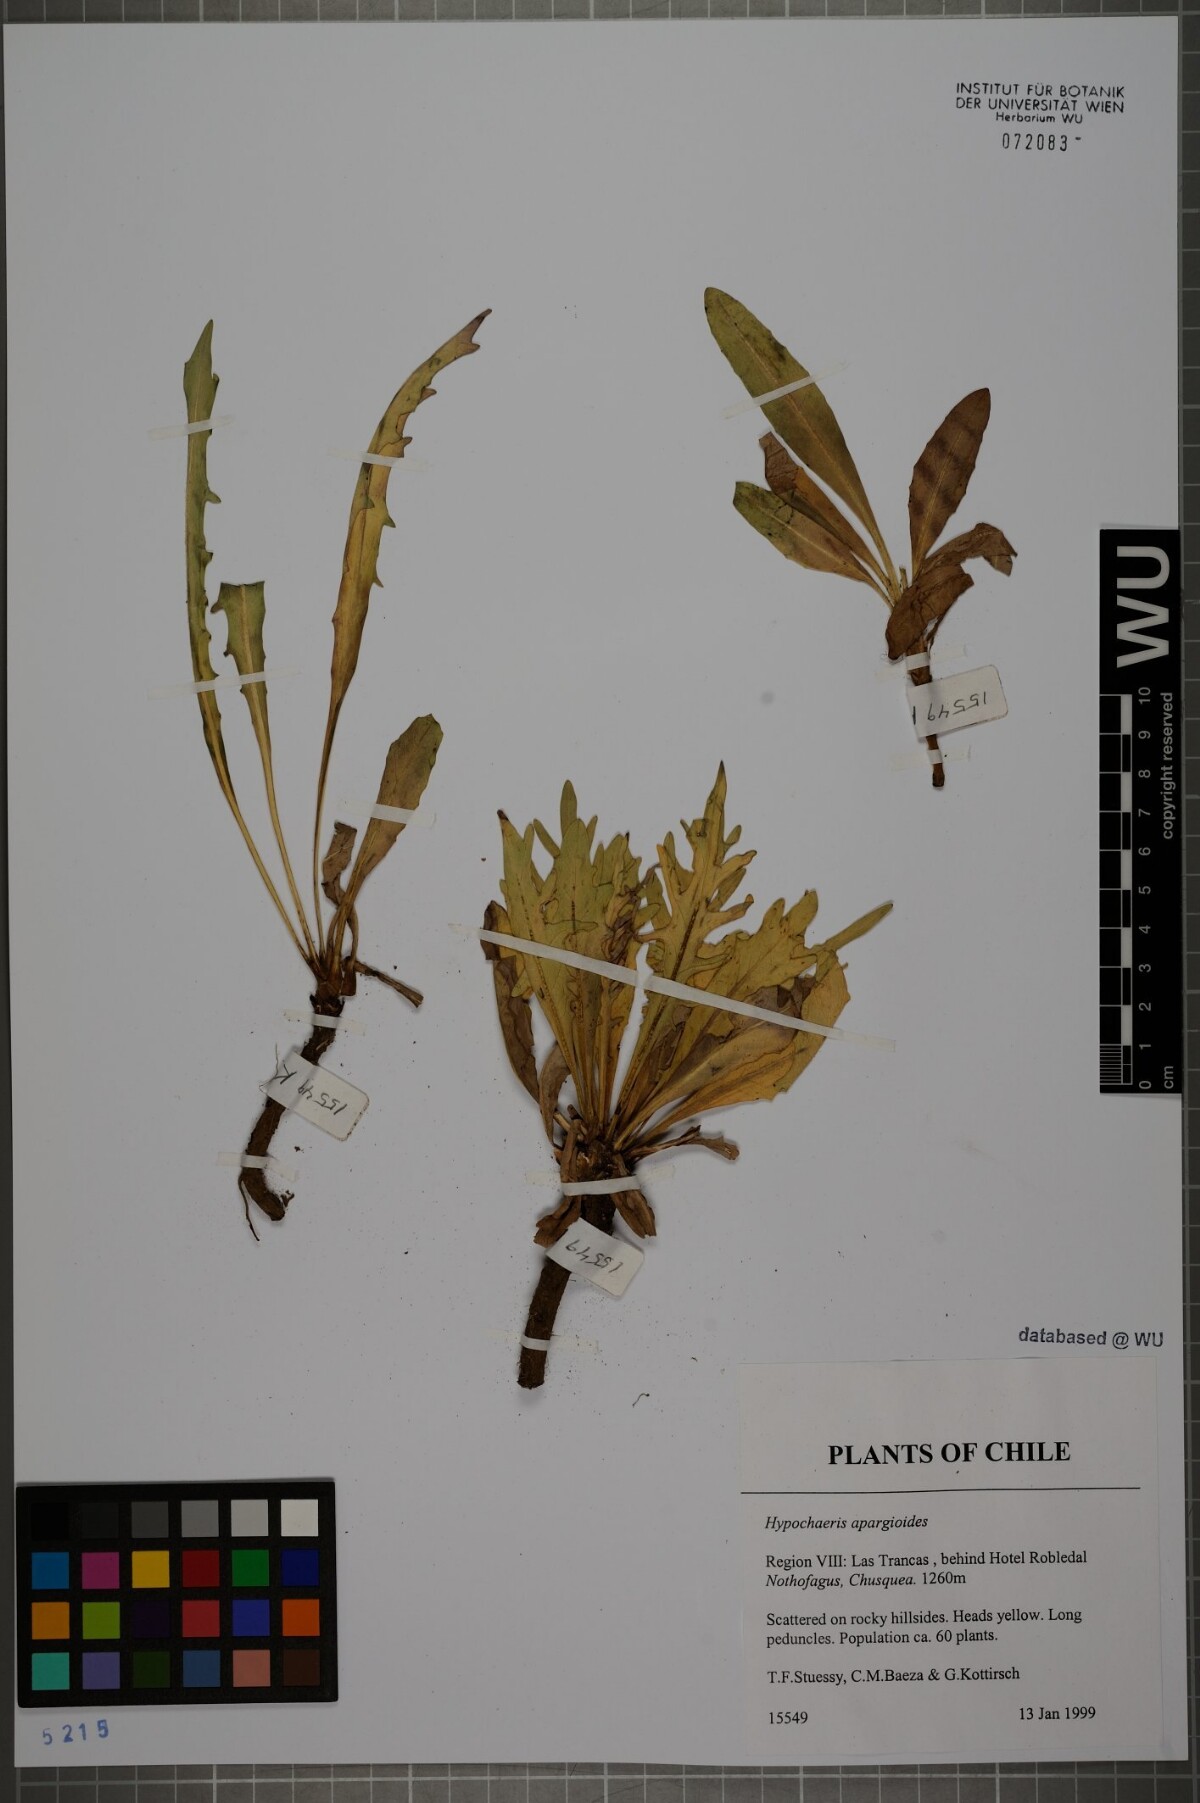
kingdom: Plantae
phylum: Tracheophyta
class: Magnoliopsida
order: Asterales
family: Asteraceae
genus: Hypochaeris
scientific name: Hypochaeris apargioides
